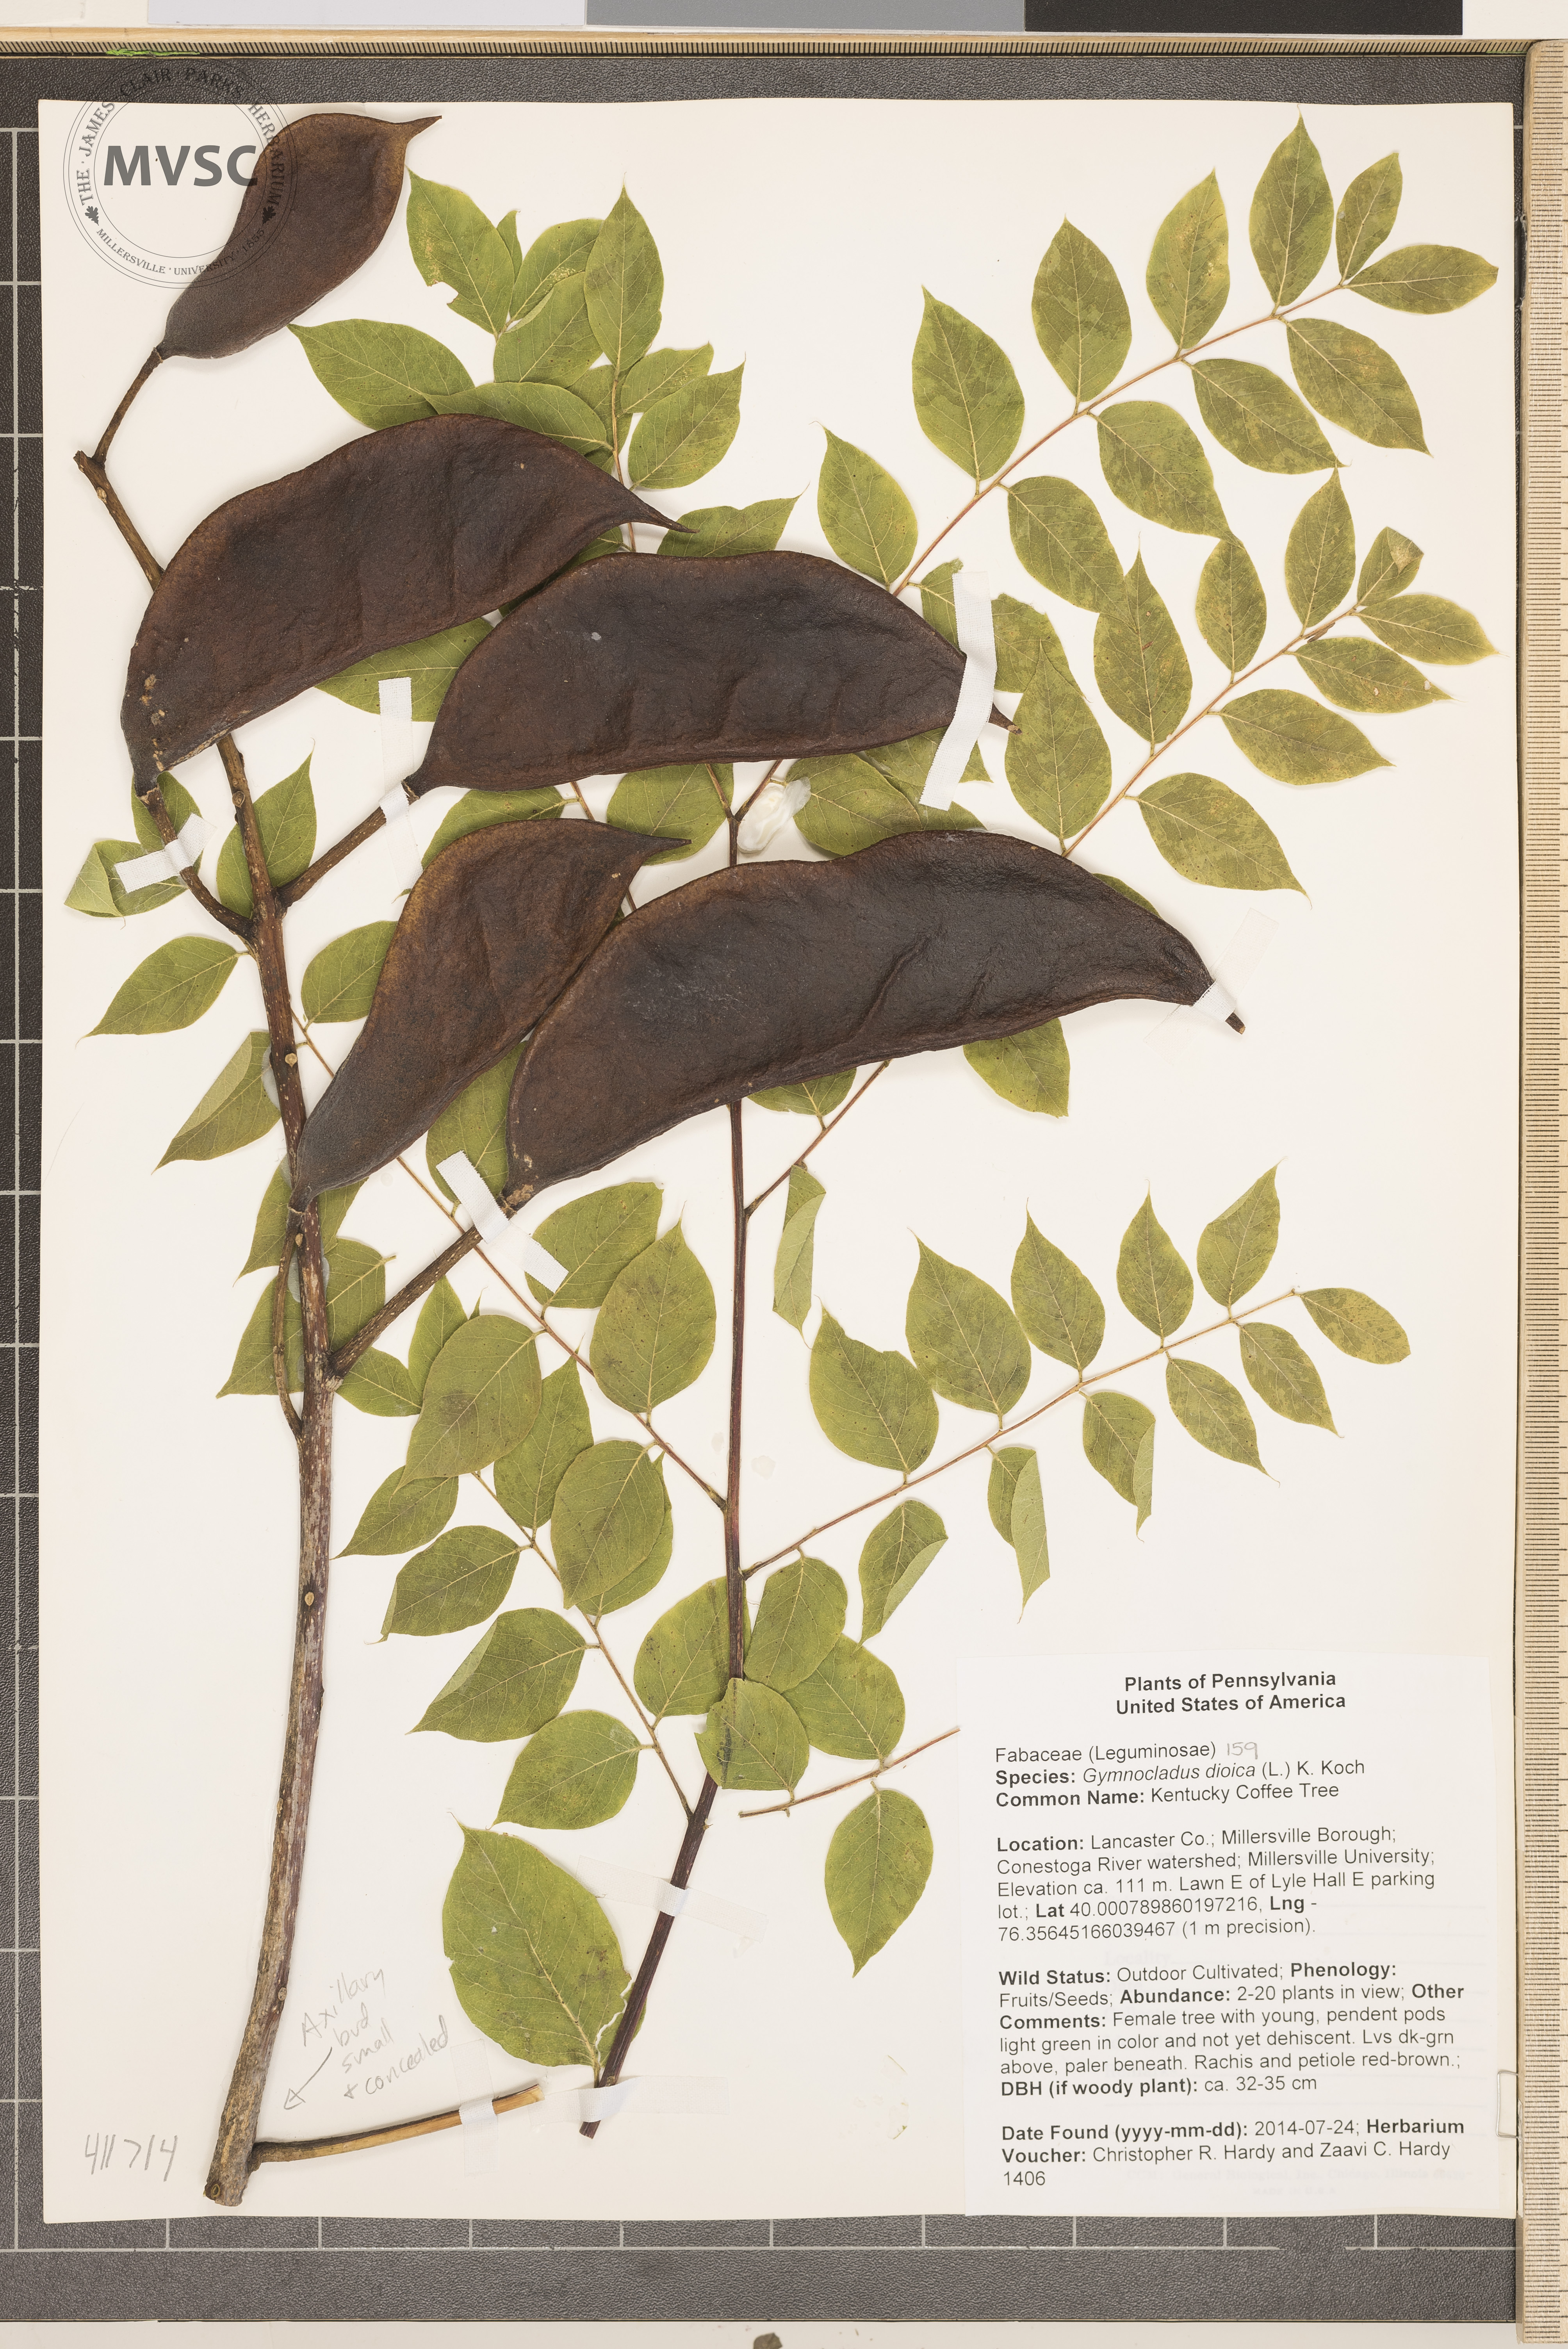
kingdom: Plantae
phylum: Tracheophyta
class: Magnoliopsida
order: Fabales
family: Fabaceae
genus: Gymnocladus
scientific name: Gymnocladus dioicus
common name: Kentucky Coffee Tree
